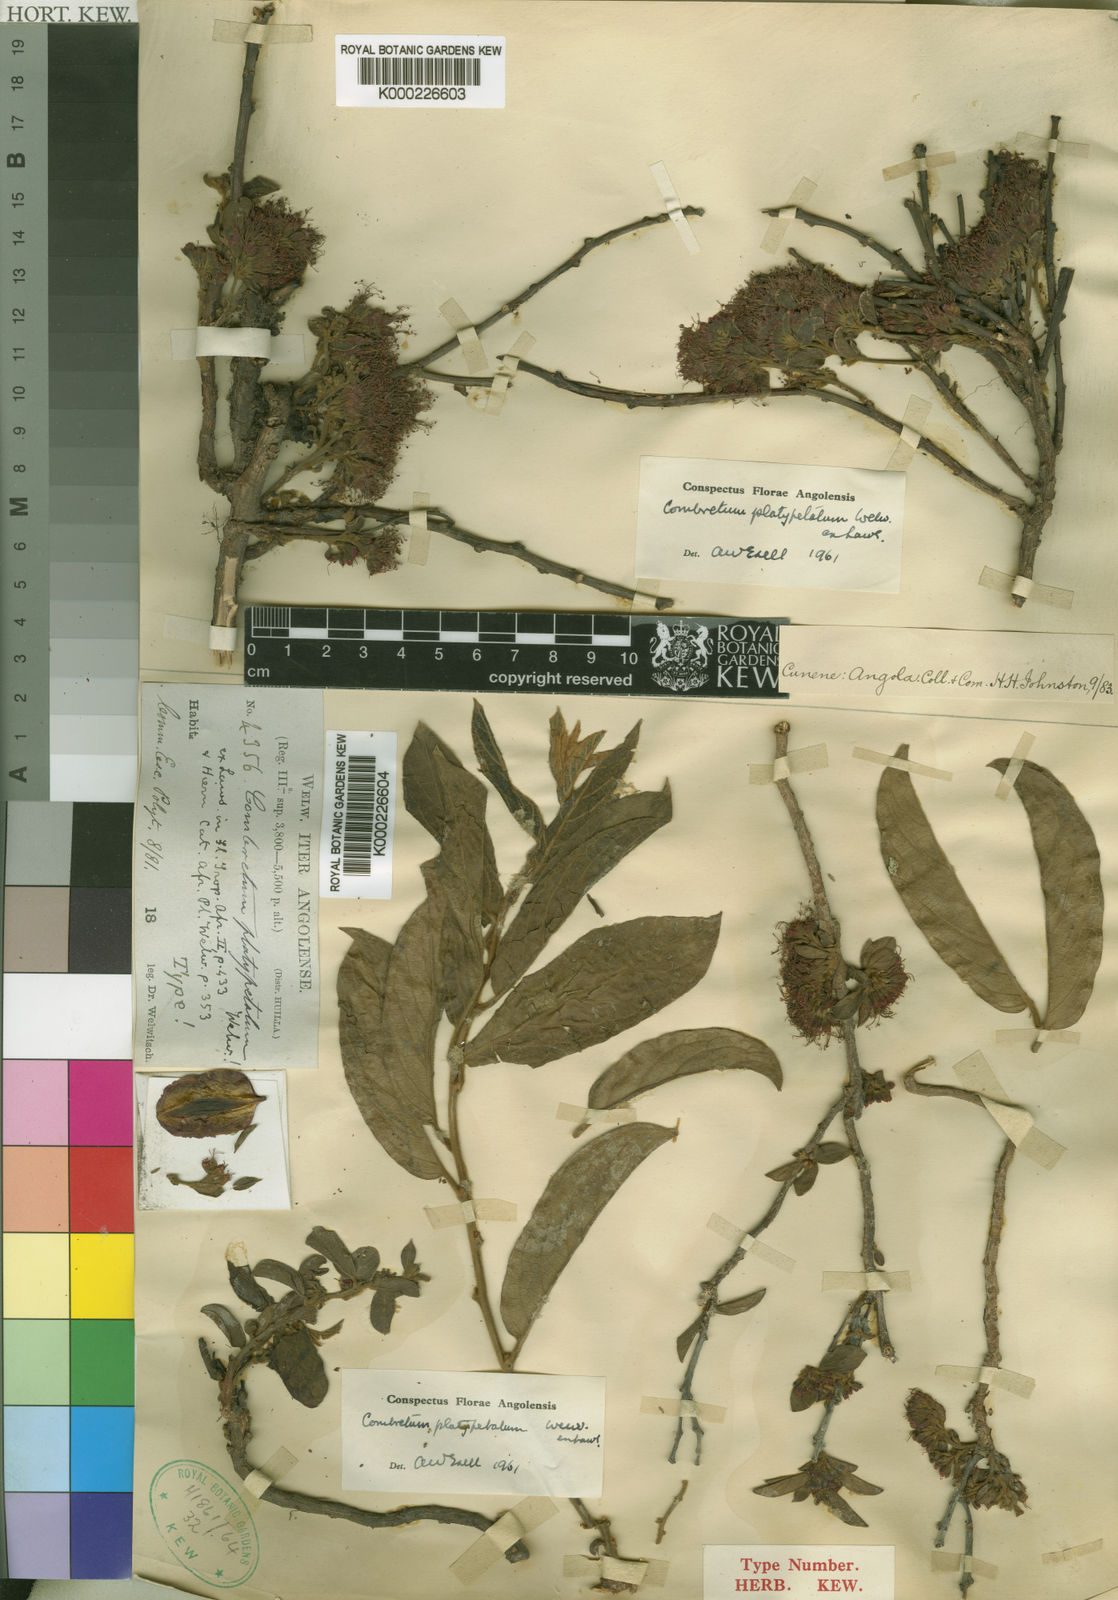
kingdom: Plantae
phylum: Tracheophyta
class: Magnoliopsida
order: Myrtales
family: Combretaceae
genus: Combretum
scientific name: Combretum platypetalum
